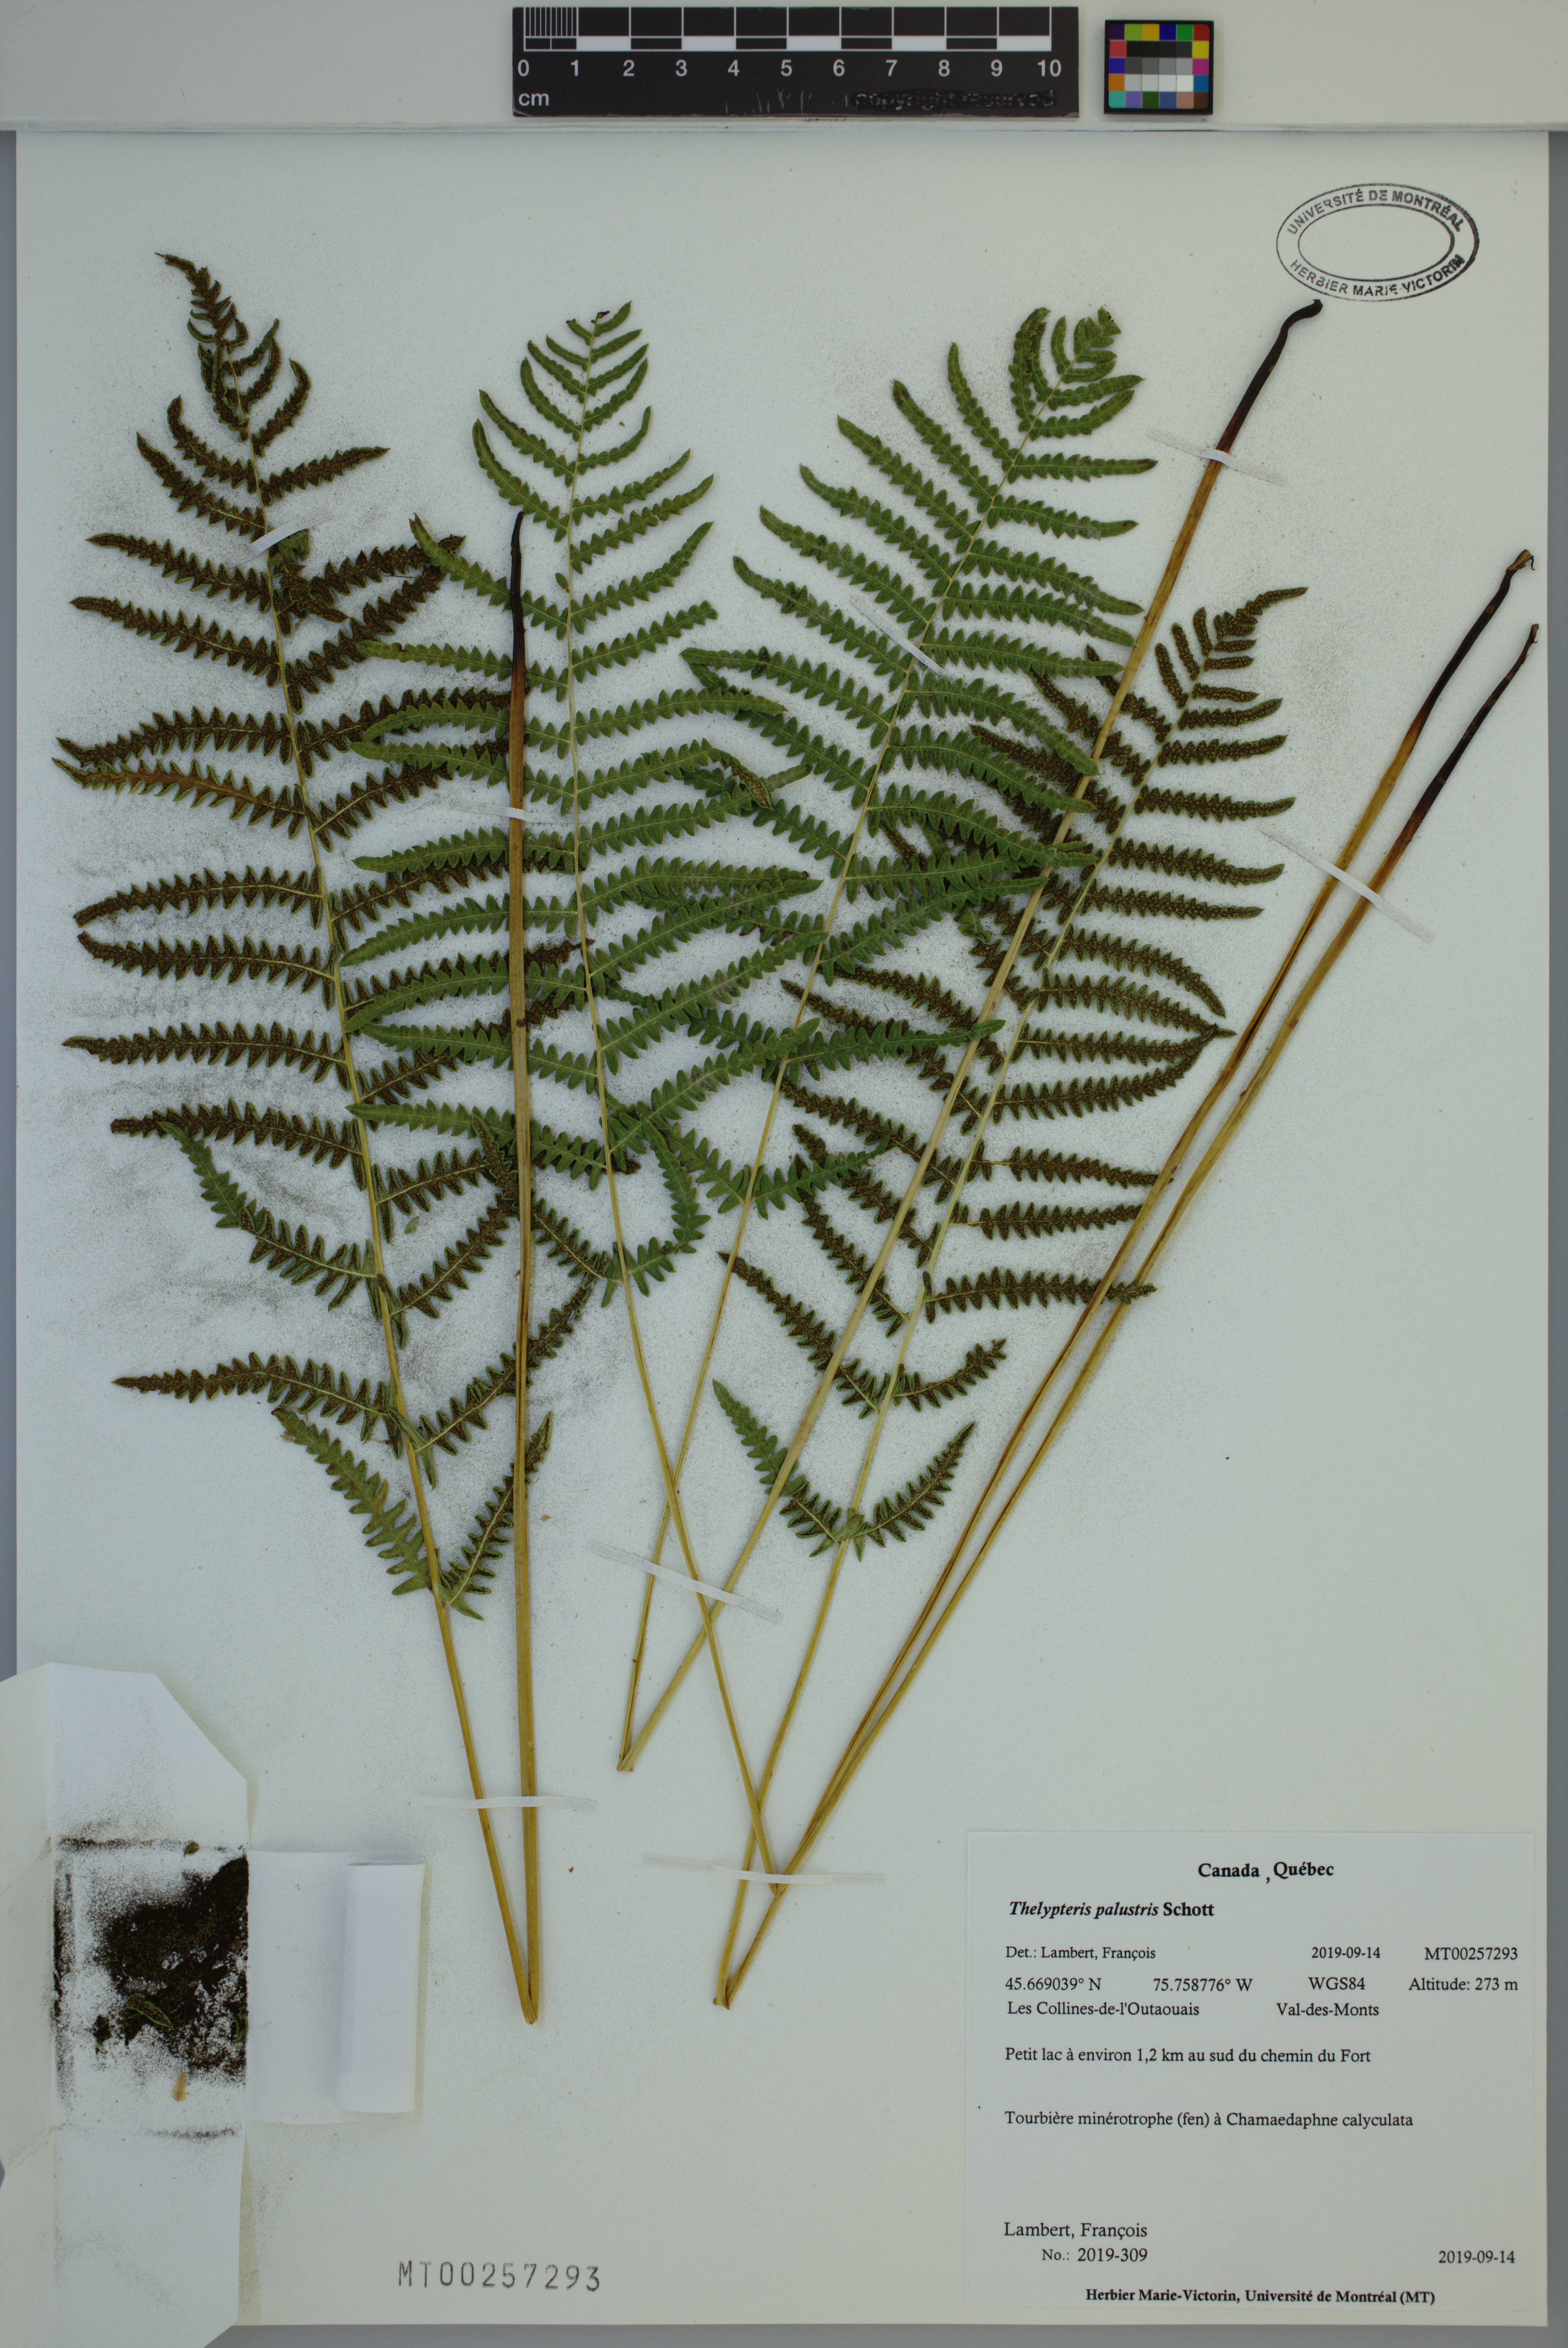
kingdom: Plantae
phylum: Tracheophyta
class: Polypodiopsida
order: Polypodiales
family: Thelypteridaceae
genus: Thelypteris
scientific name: Thelypteris palustris
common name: Marsh fern
